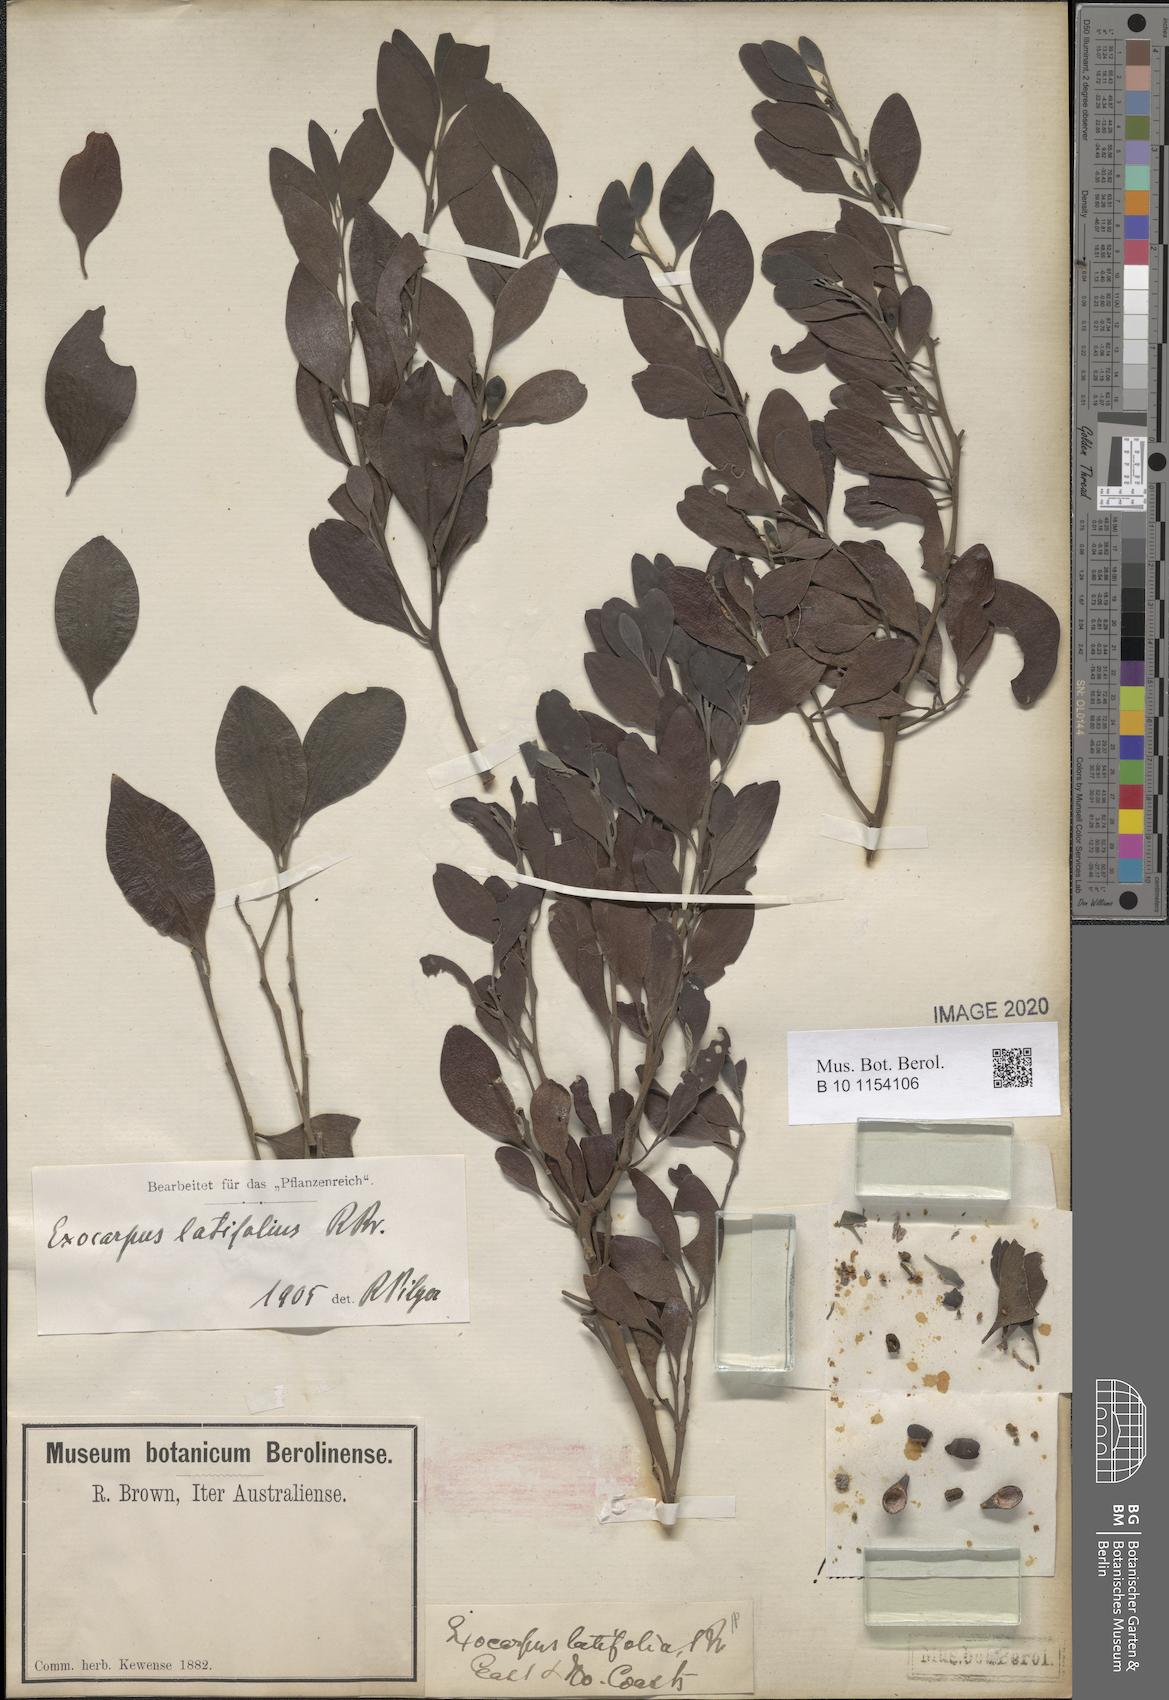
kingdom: Plantae
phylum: Tracheophyta
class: Magnoliopsida
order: Santalales
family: Santalaceae
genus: Exocarpos
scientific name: Exocarpos latifolius
